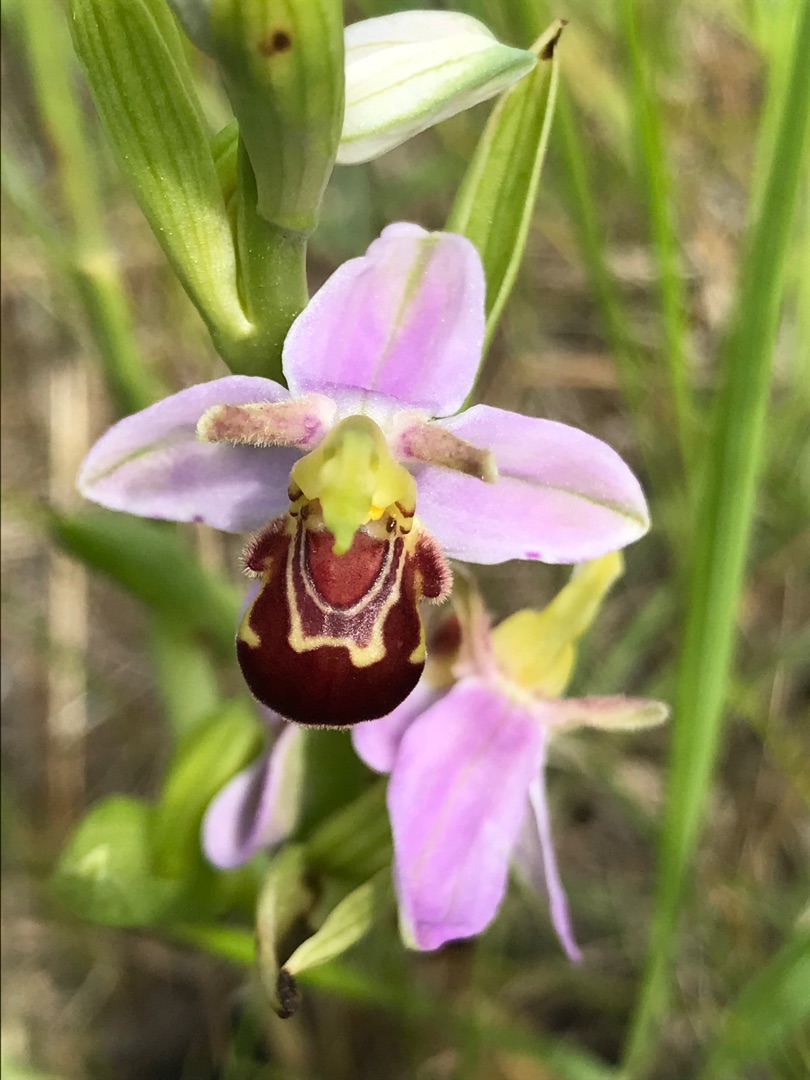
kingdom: Plantae
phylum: Tracheophyta
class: Liliopsida
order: Asparagales
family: Orchidaceae
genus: Ophrys
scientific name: Ophrys apifera
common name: Biblomst
